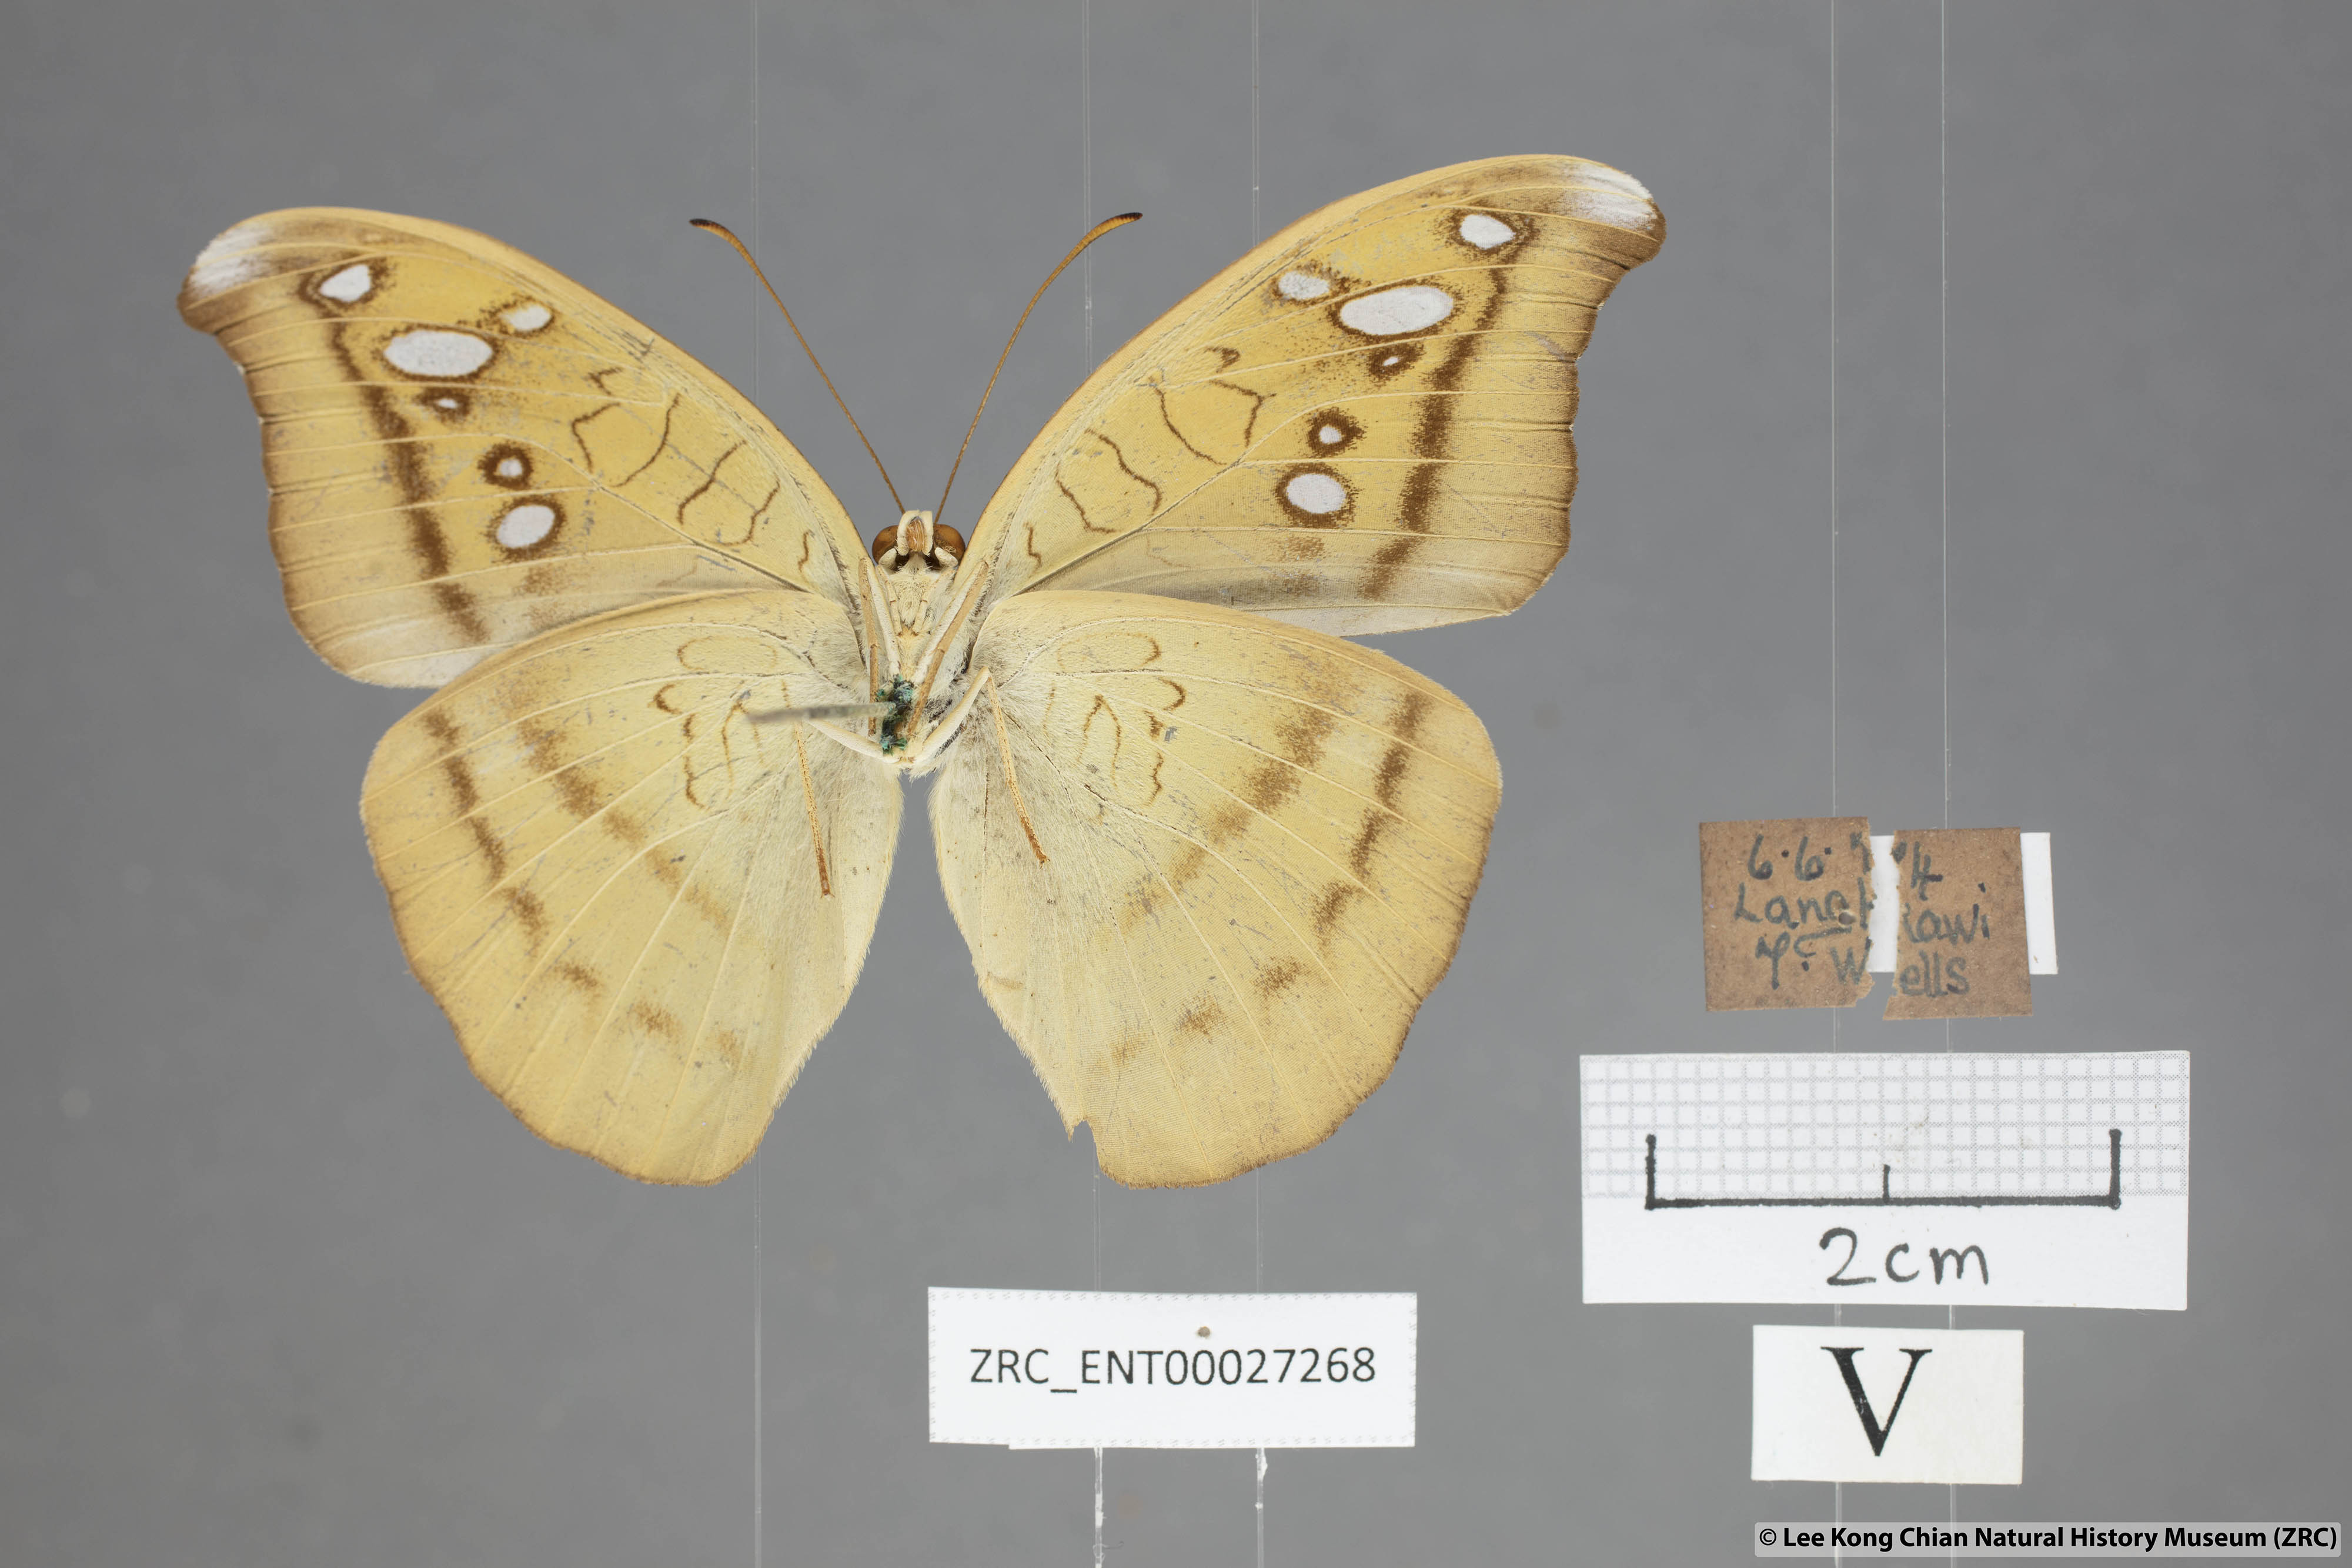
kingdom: Animalia
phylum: Arthropoda
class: Insecta
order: Lepidoptera
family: Nymphalidae
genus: Tanaecia
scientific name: Tanaecia cocytus
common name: Lavender count
